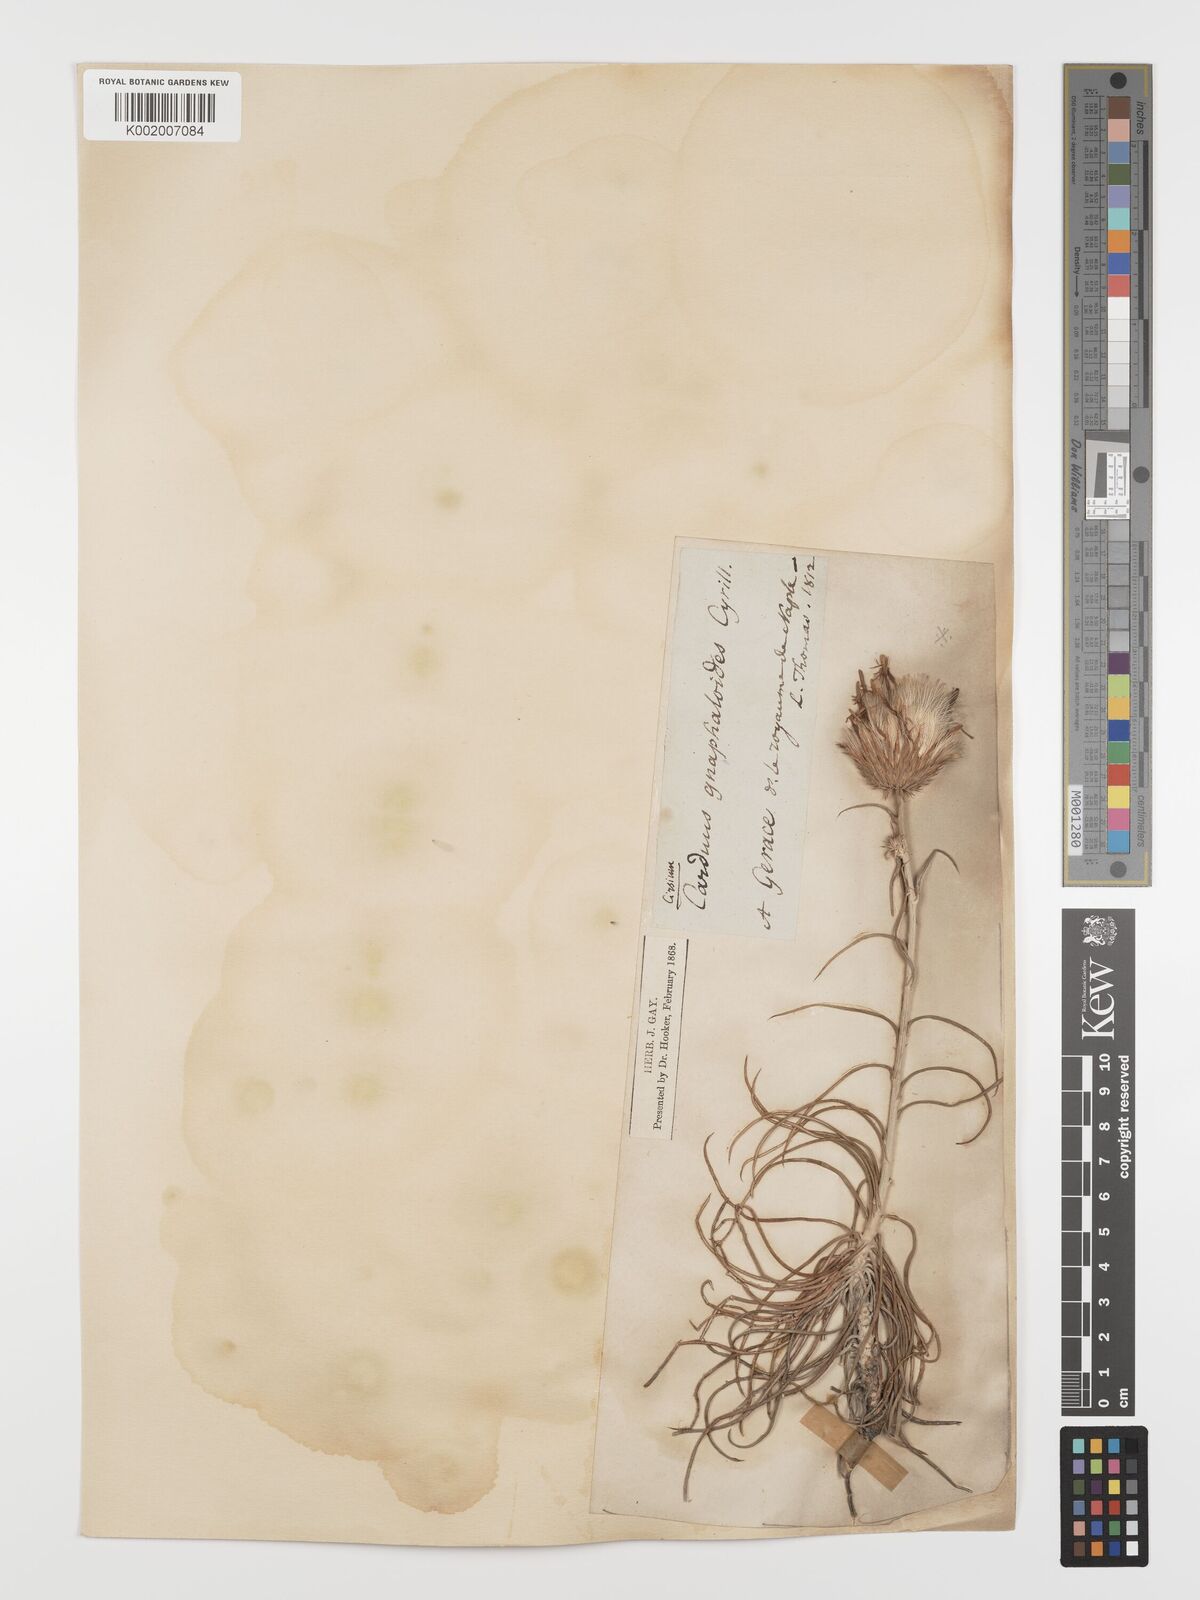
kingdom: Plantae
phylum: Tracheophyta
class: Magnoliopsida
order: Asterales
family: Asteraceae
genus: Ptilostemon
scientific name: Ptilostemon gnaphaloides
